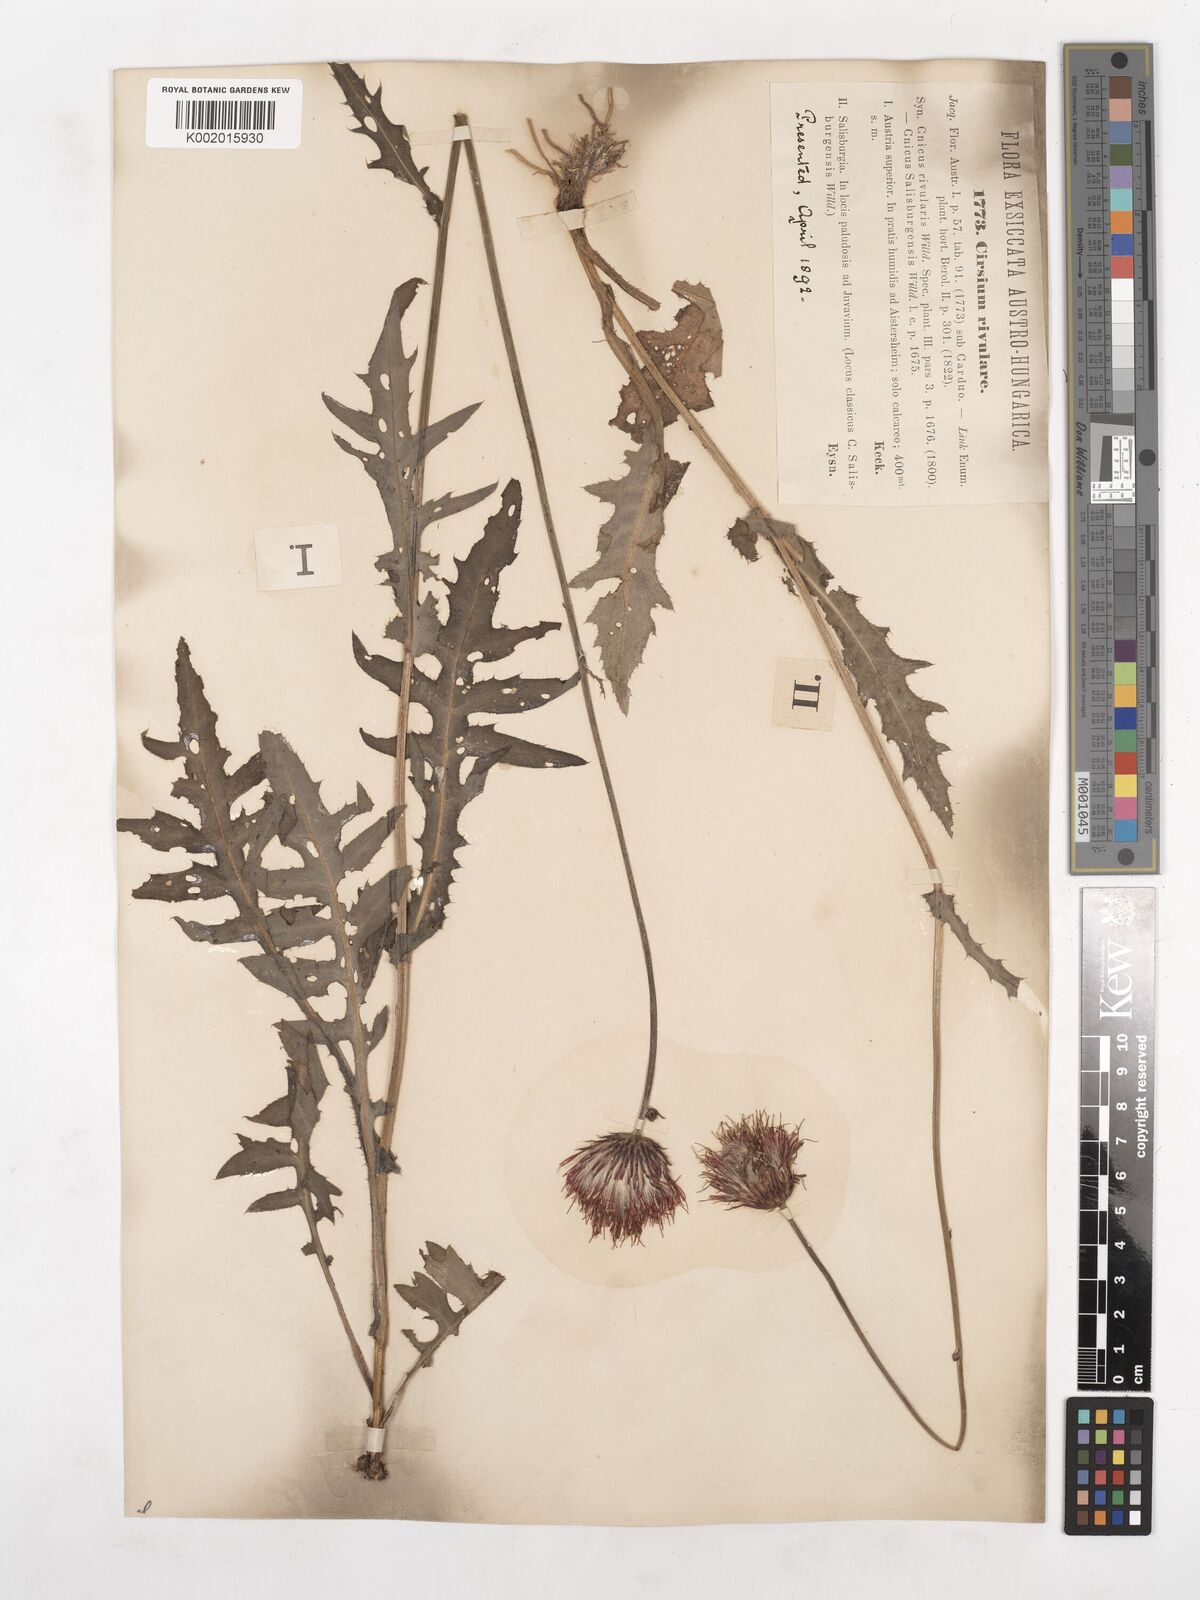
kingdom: Plantae
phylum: Tracheophyta
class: Magnoliopsida
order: Asterales
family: Asteraceae
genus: Cirsium
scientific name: Cirsium rivulare
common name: Brook thistle
